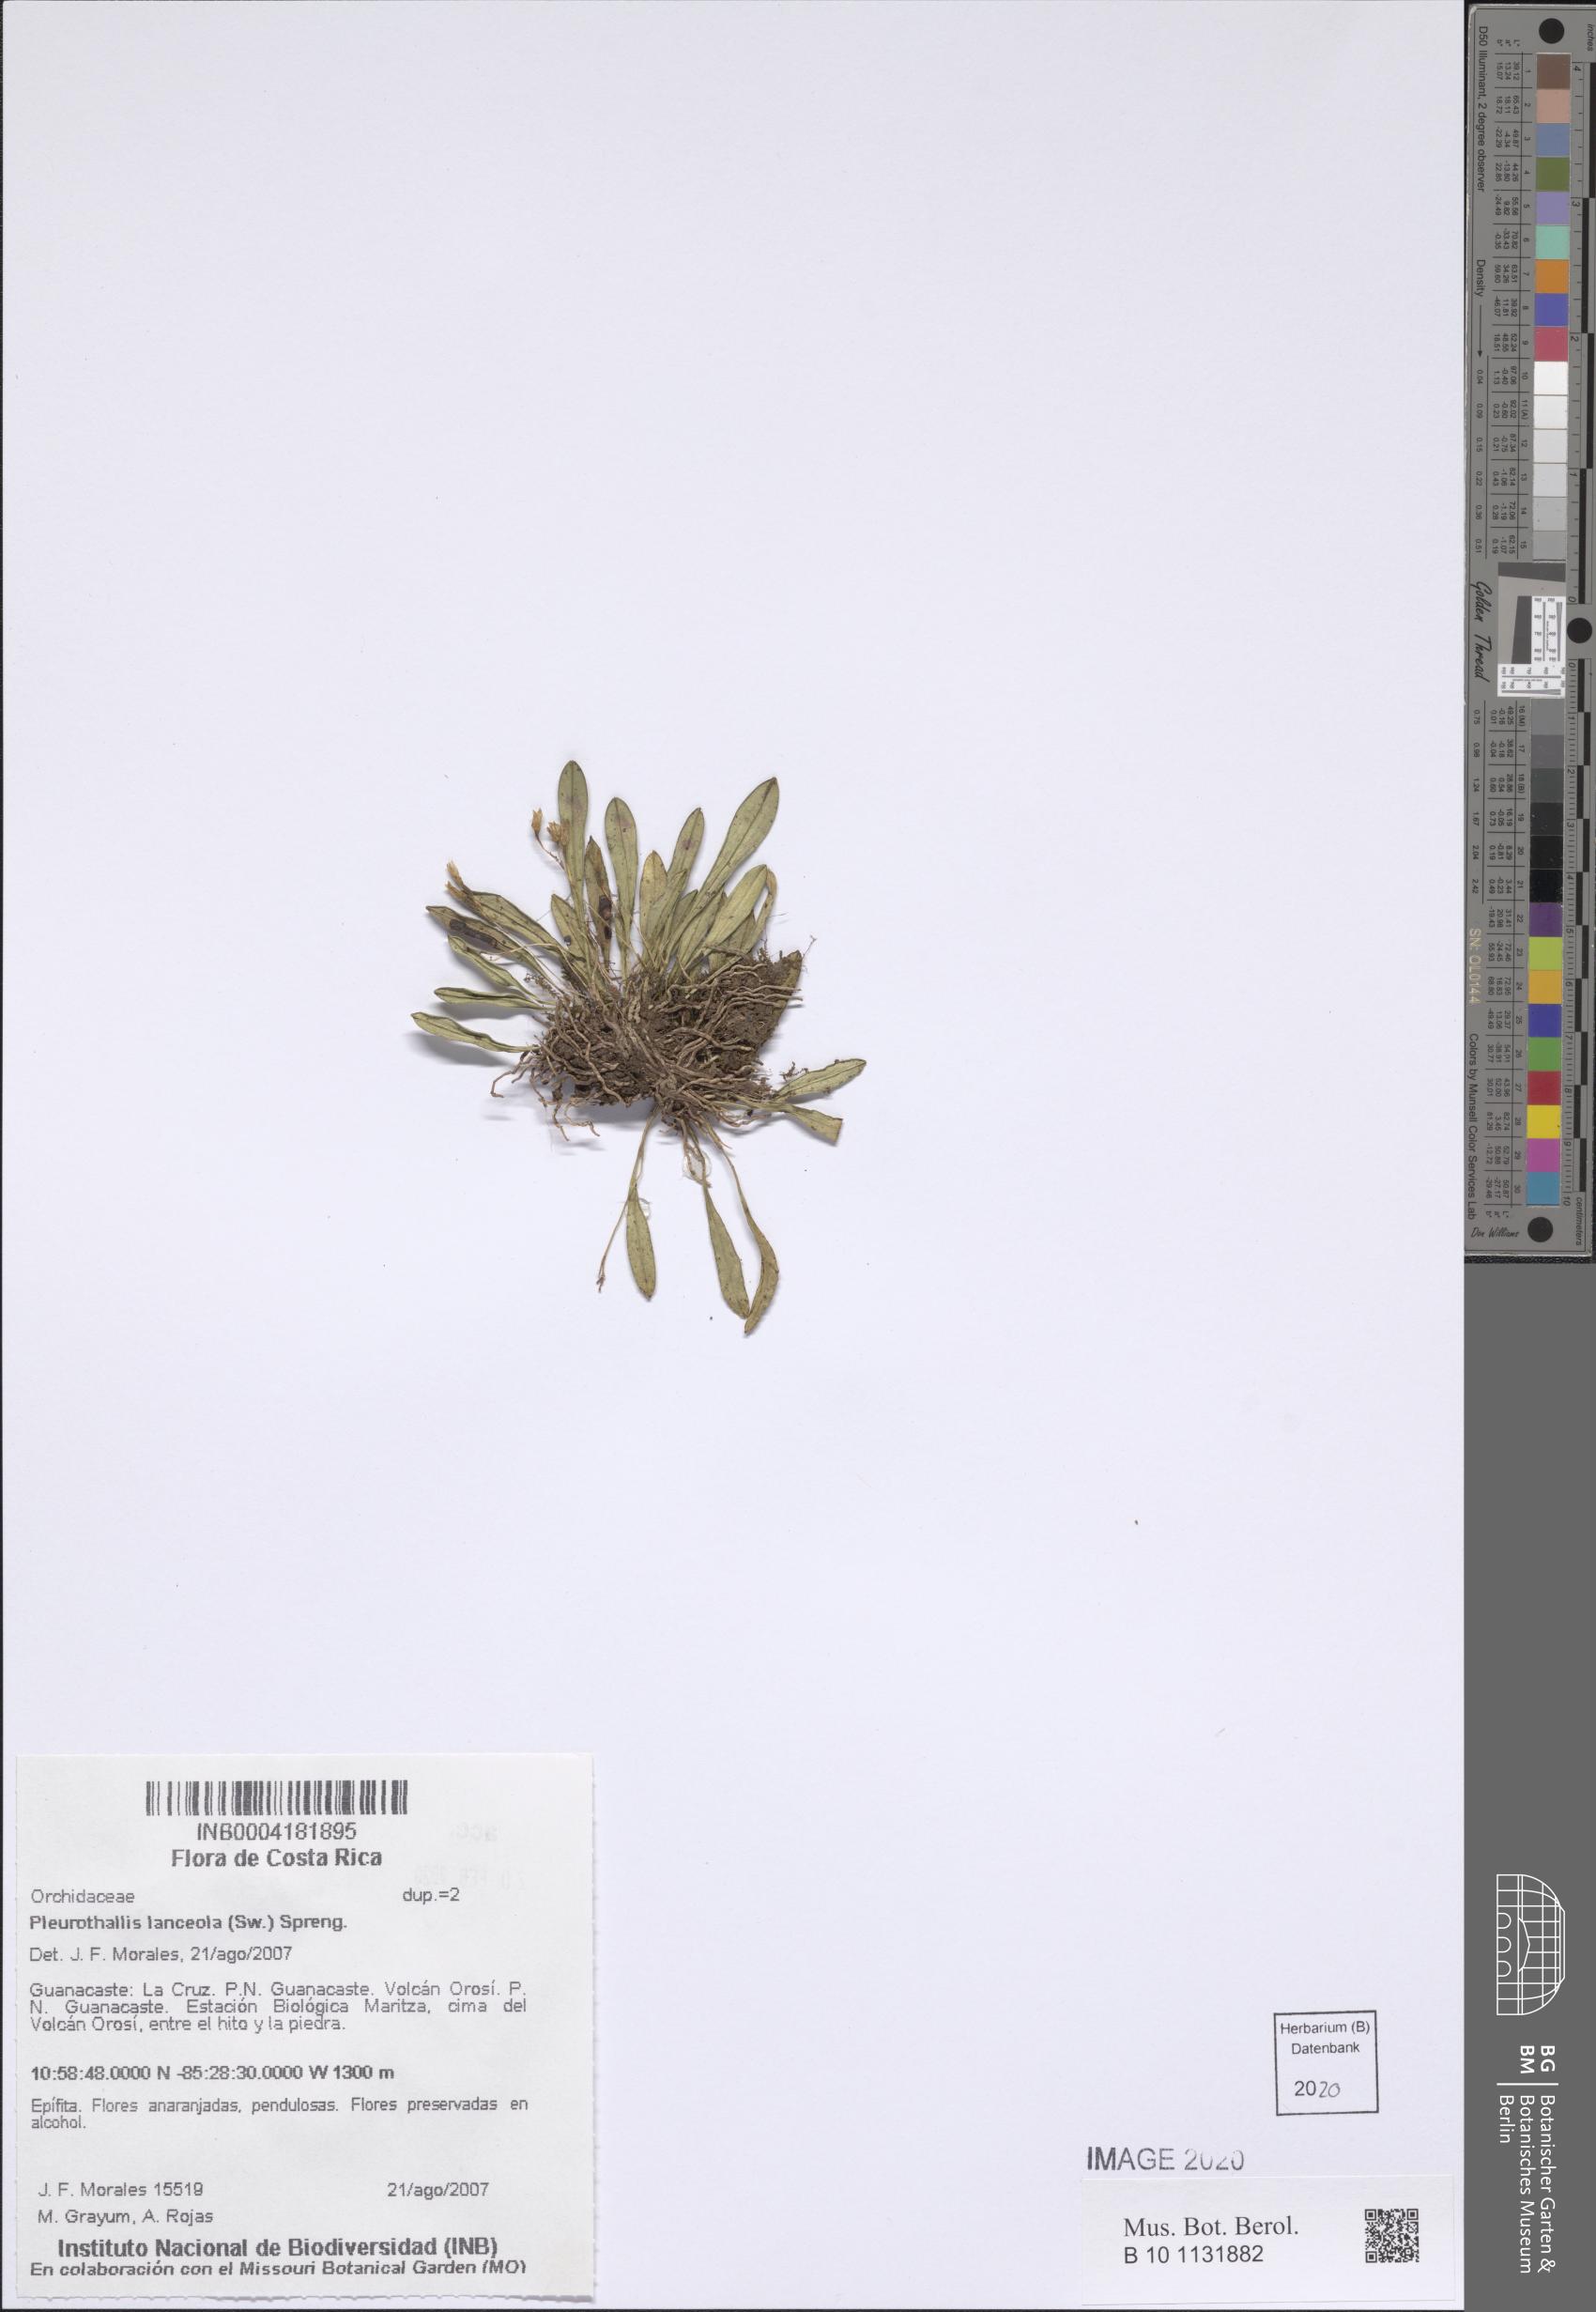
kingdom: Plantae
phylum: Tracheophyta
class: Liliopsida
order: Asparagales
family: Orchidaceae
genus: Specklinia
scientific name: Specklinia lanceola
